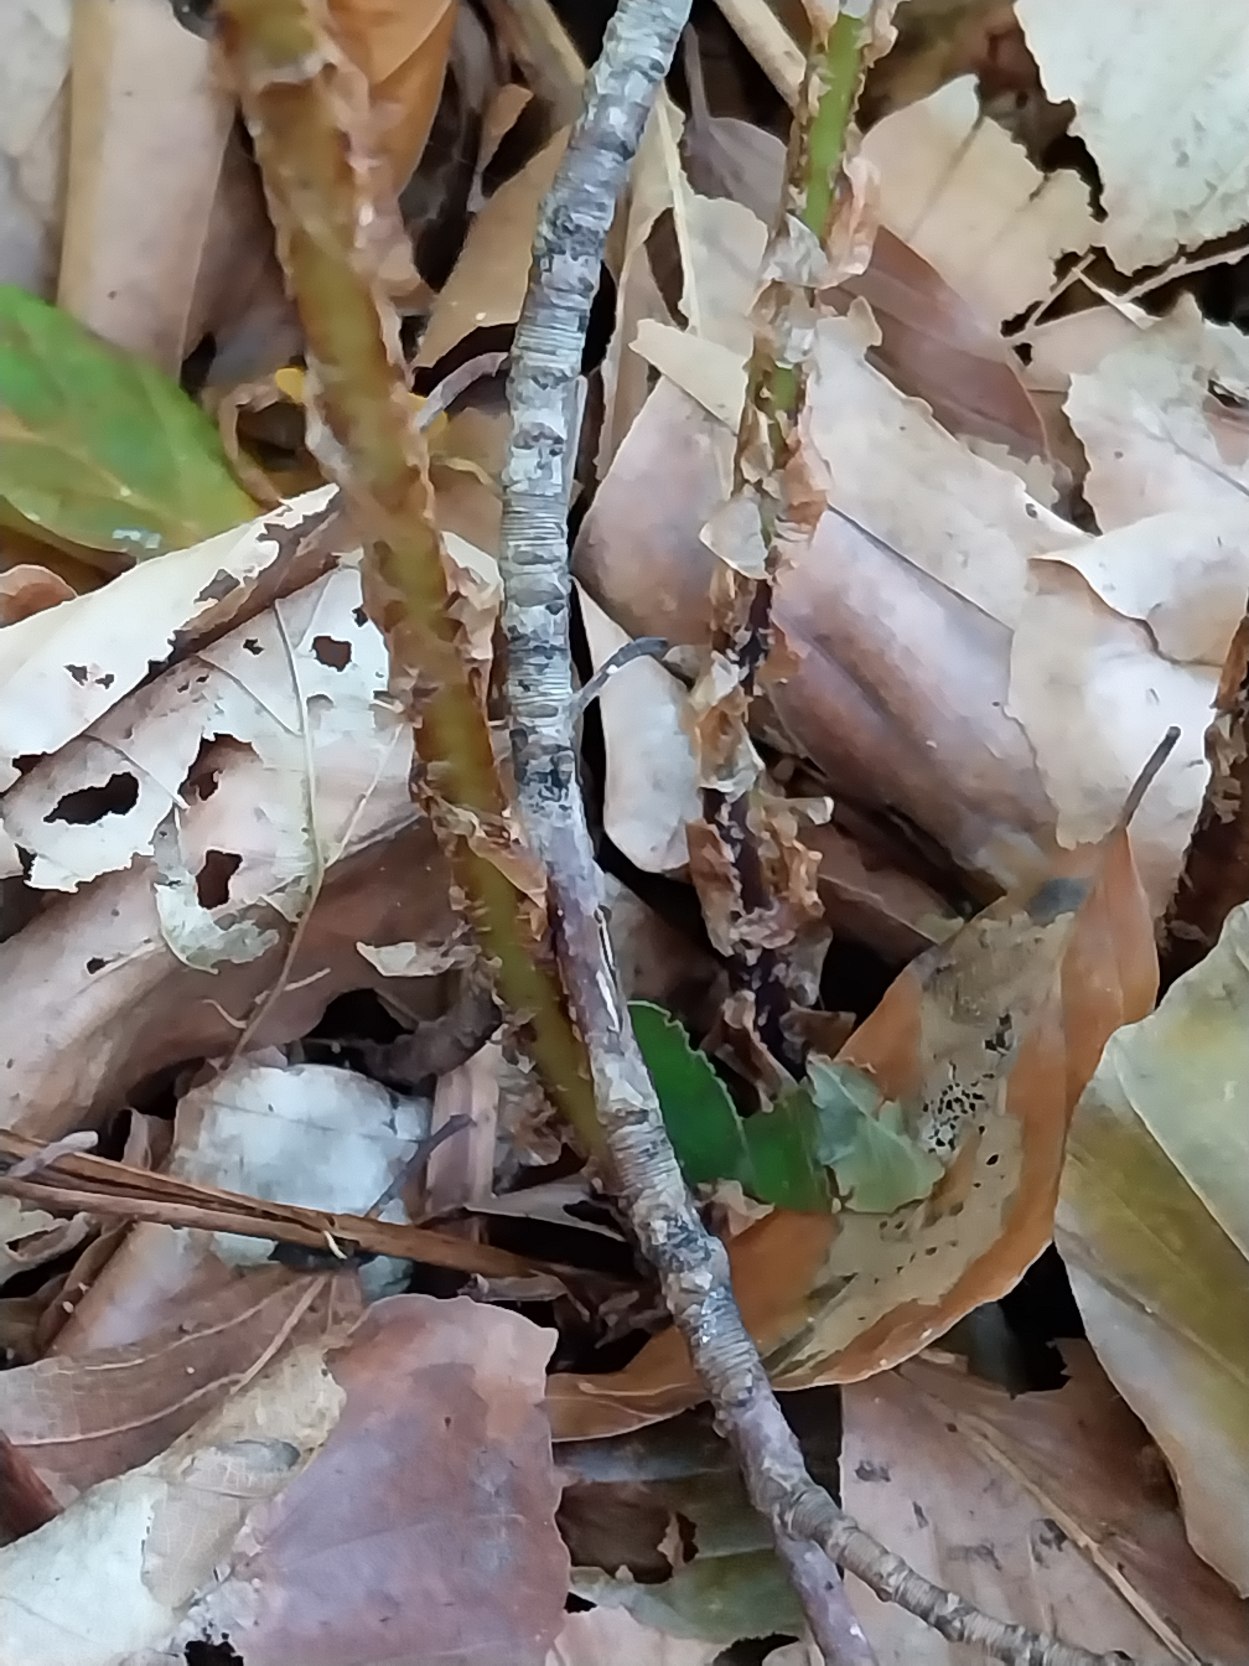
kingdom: Plantae
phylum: Tracheophyta
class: Polypodiopsida
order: Polypodiales
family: Dryopteridaceae
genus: Dryopteris
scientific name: Dryopteris dilatata
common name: Bredbladet mangeløv
